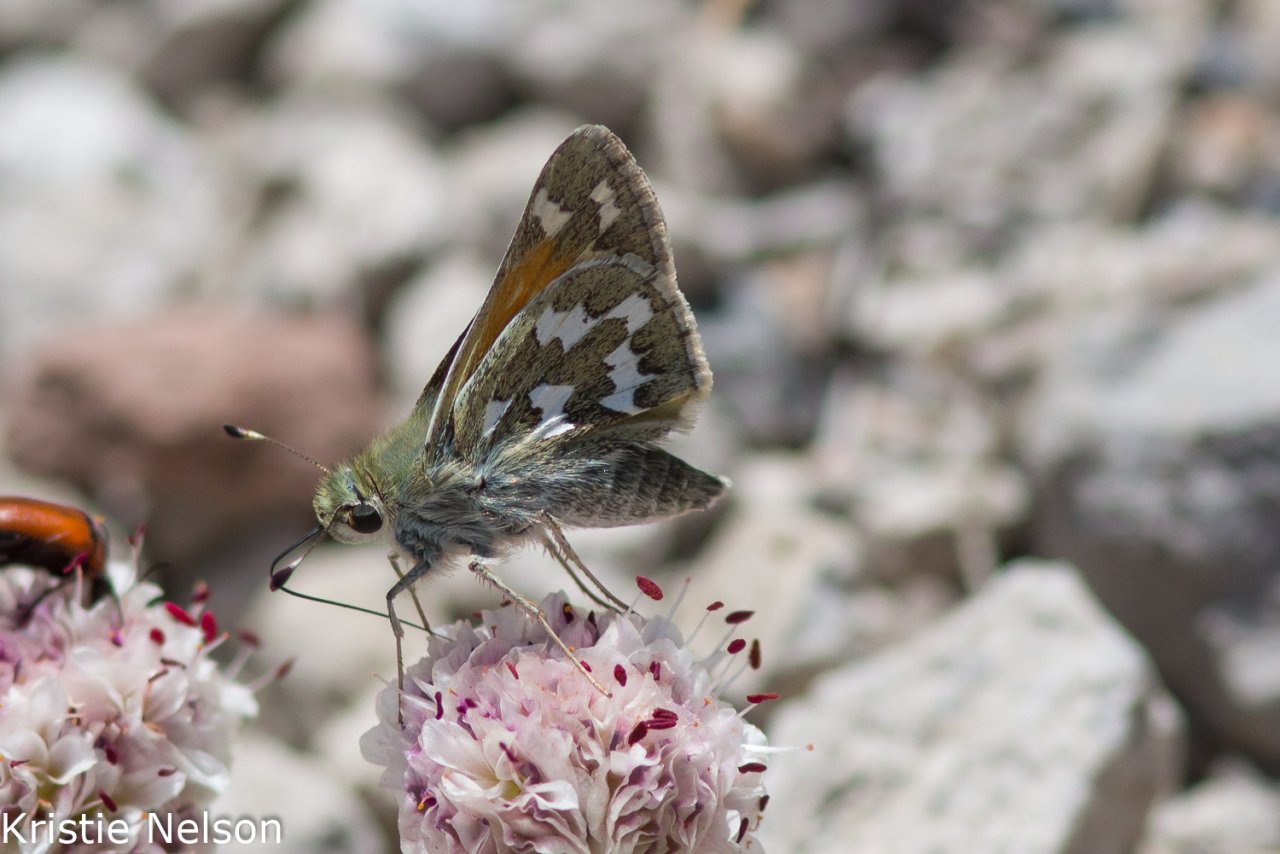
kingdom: Animalia
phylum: Arthropoda
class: Insecta
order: Lepidoptera
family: Hesperiidae
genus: Hesperia
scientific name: Hesperia juba
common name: Juba Skipper
